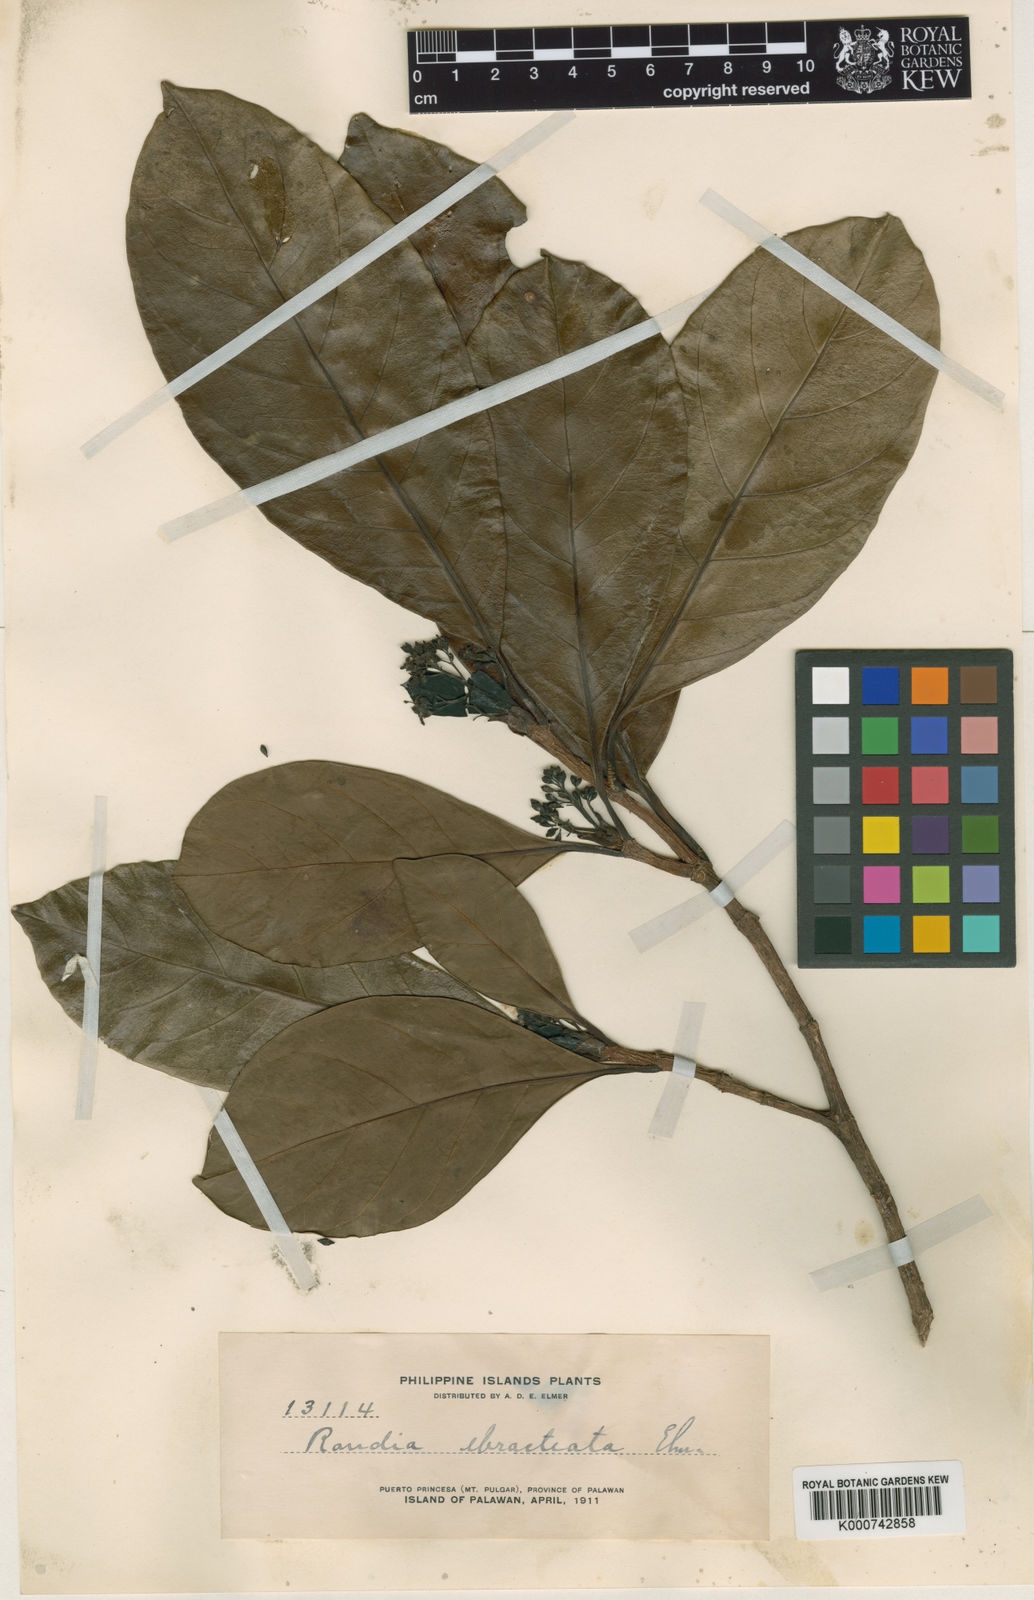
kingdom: Plantae
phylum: Tracheophyta
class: Magnoliopsida
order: Gentianales
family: Rubiaceae
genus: Tarennoidea
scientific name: Tarennoidea wallichii
